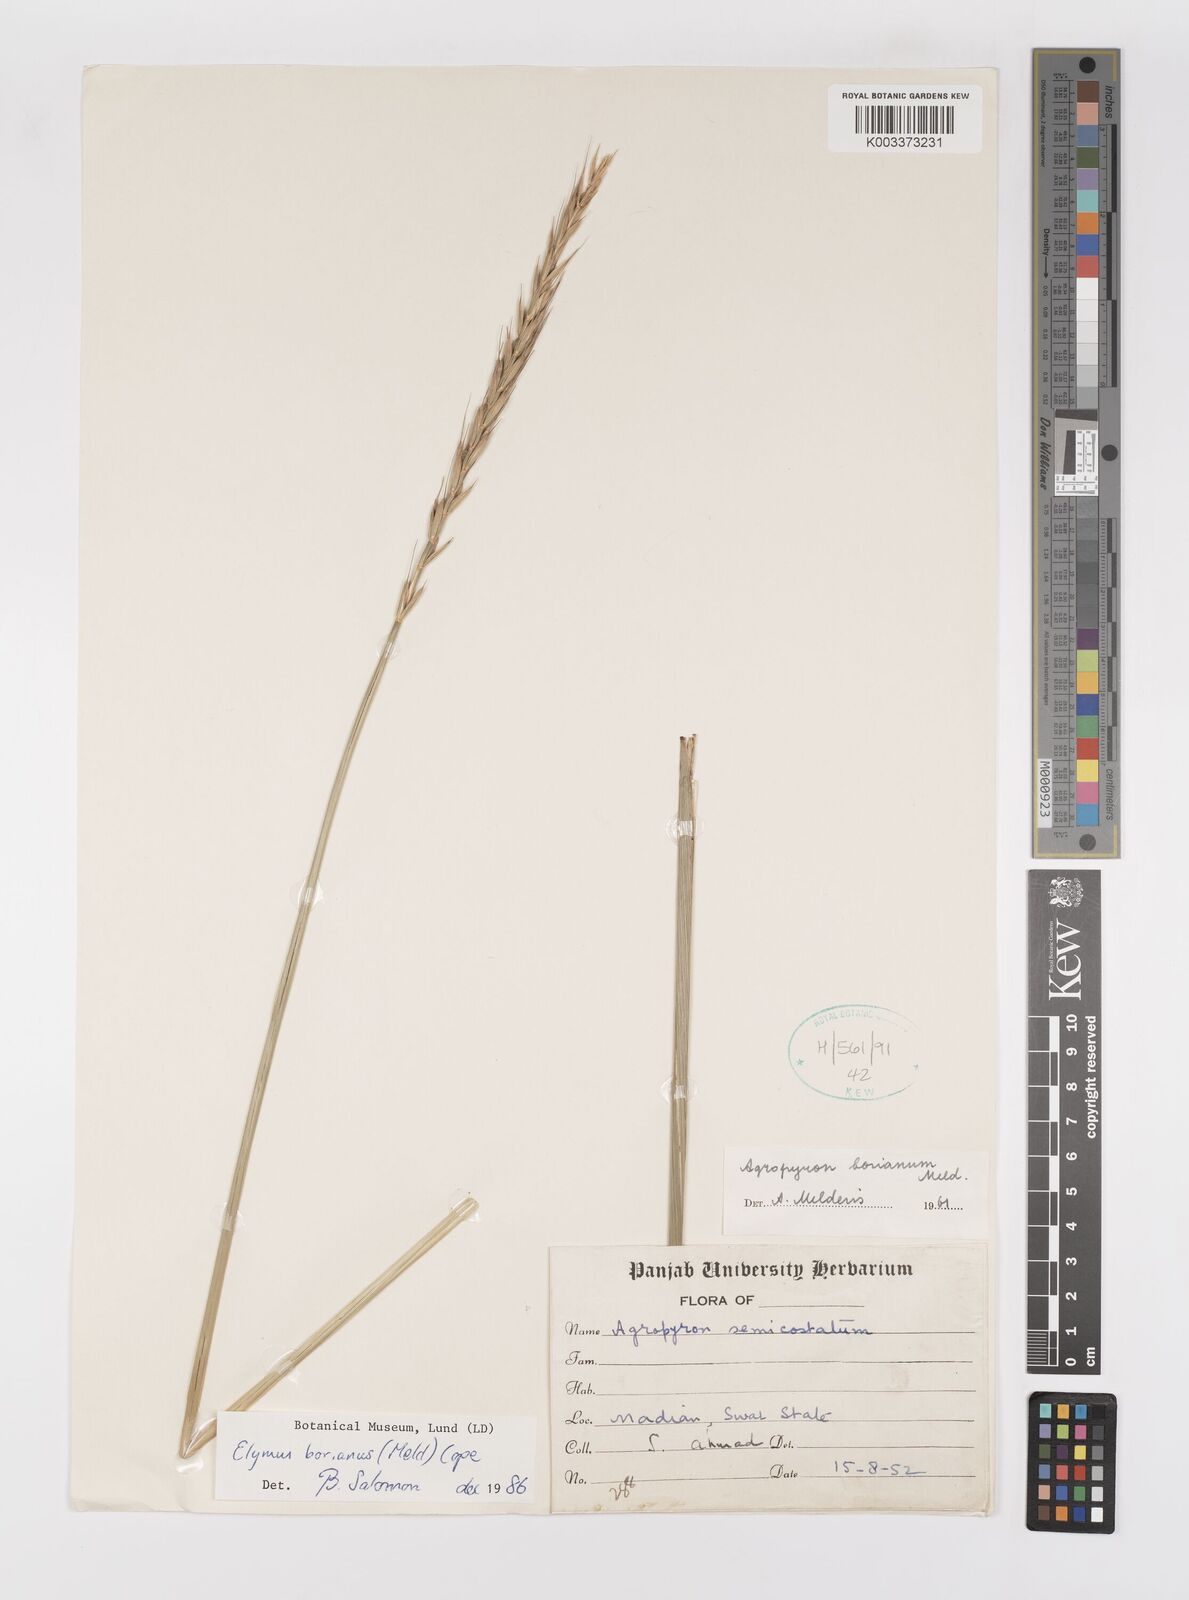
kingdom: Plantae
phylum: Tracheophyta
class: Liliopsida
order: Poales
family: Poaceae
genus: Elymus
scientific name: Elymus borianus
